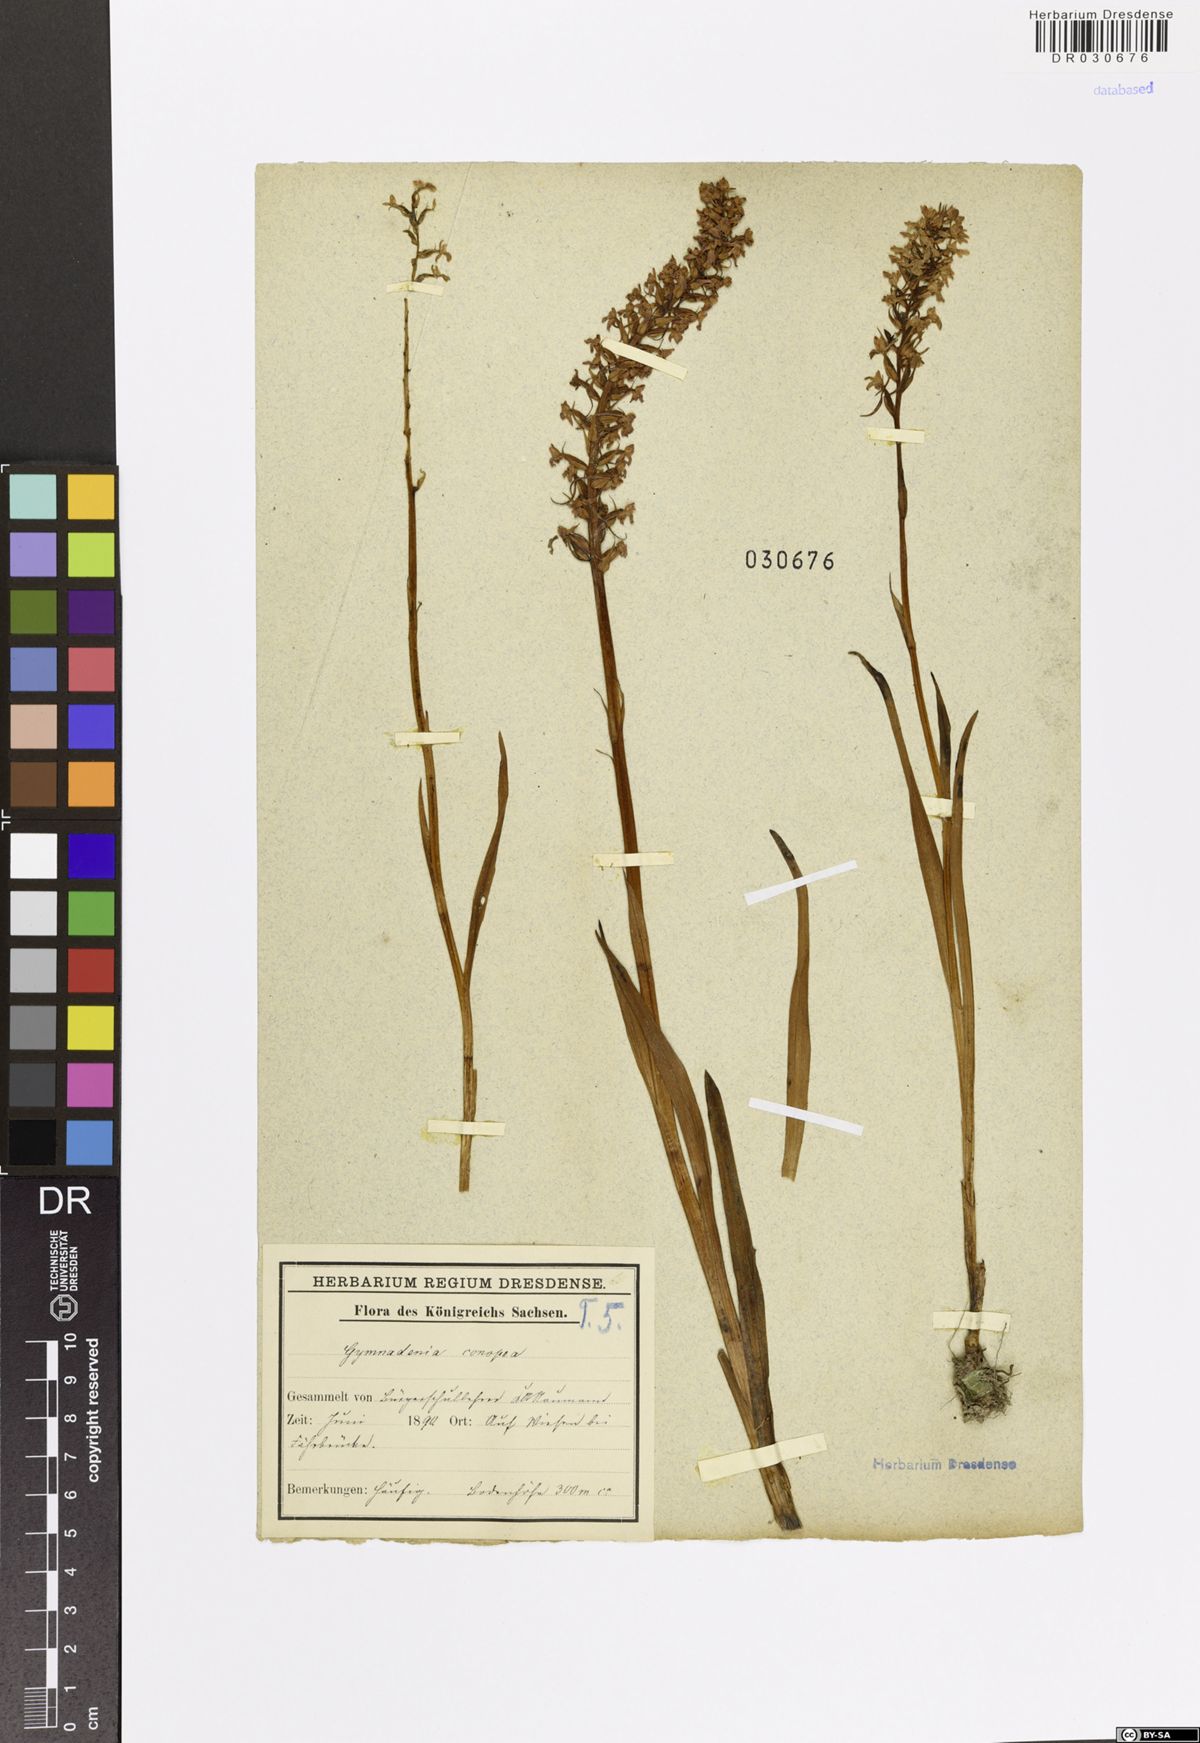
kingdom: Plantae
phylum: Tracheophyta
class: Liliopsida
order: Asparagales
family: Orchidaceae
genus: Gymnadenia
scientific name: Gymnadenia conopsea
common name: Fragrant orchid
